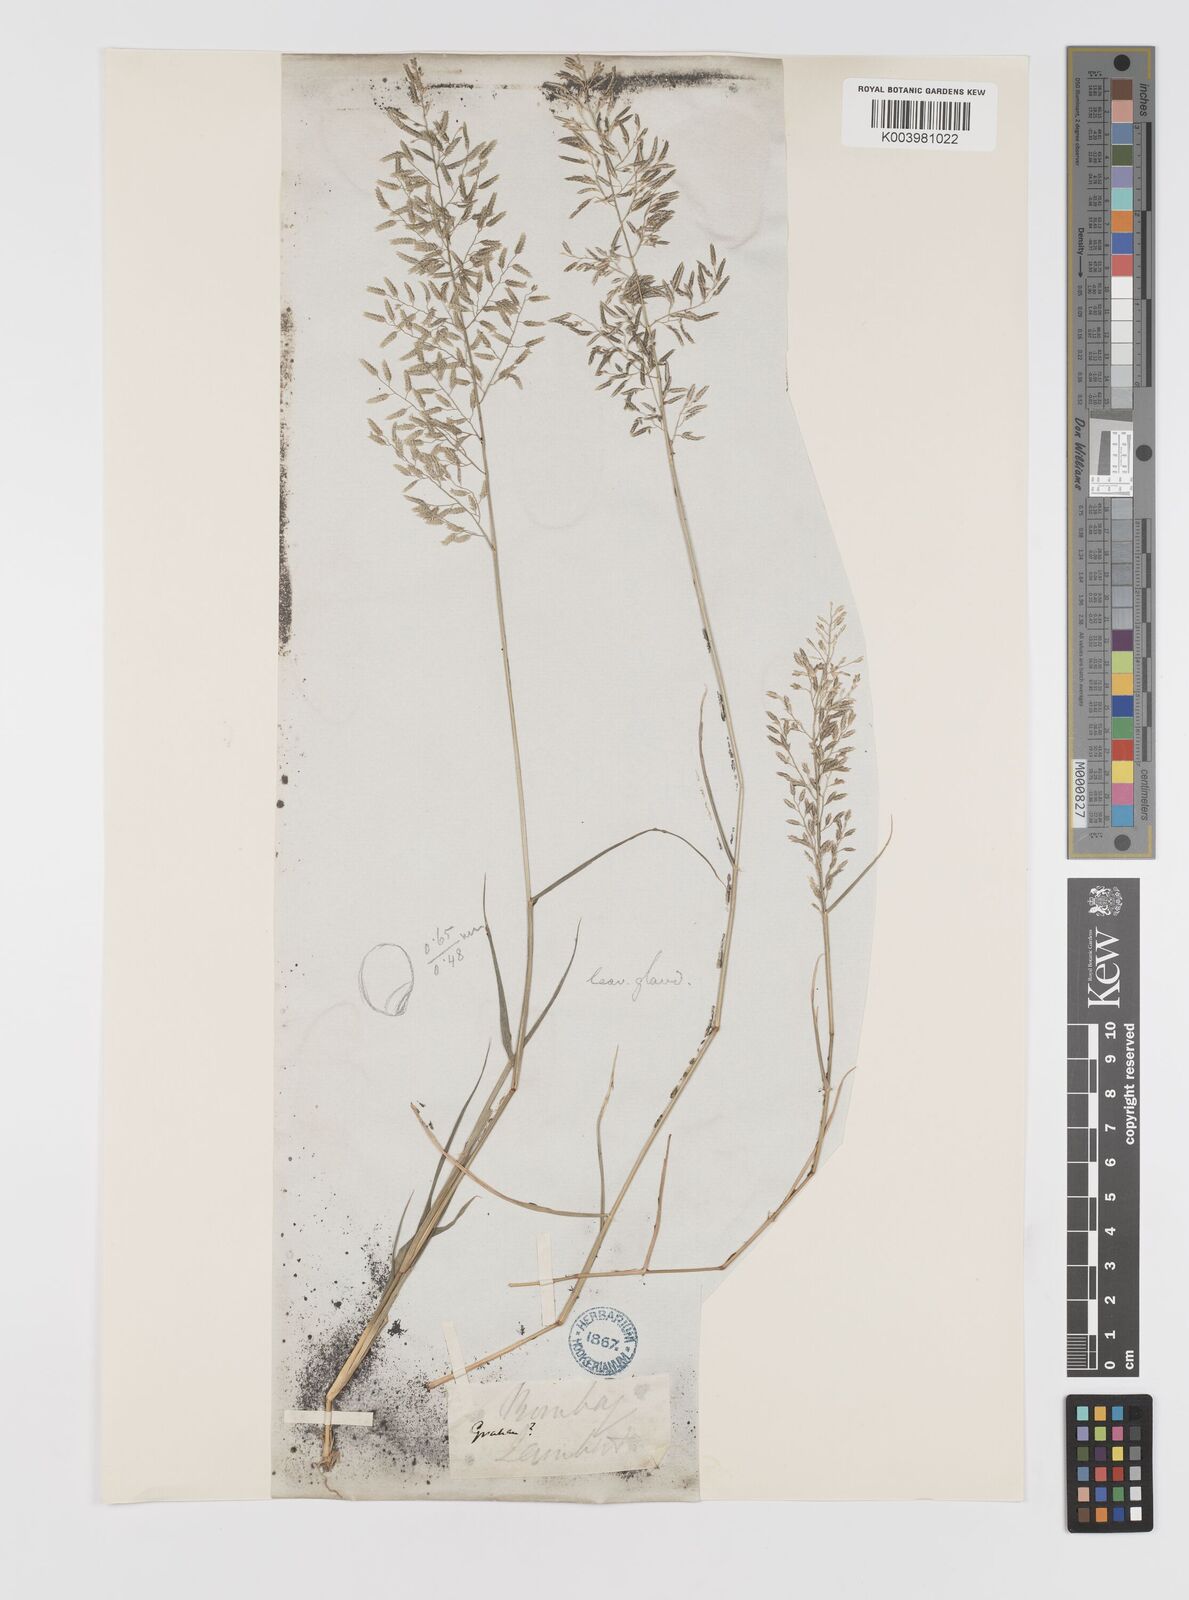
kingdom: Plantae
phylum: Tracheophyta
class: Liliopsida
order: Poales
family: Poaceae
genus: Eragrostis
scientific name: Eragrostis minor
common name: Small love-grass
